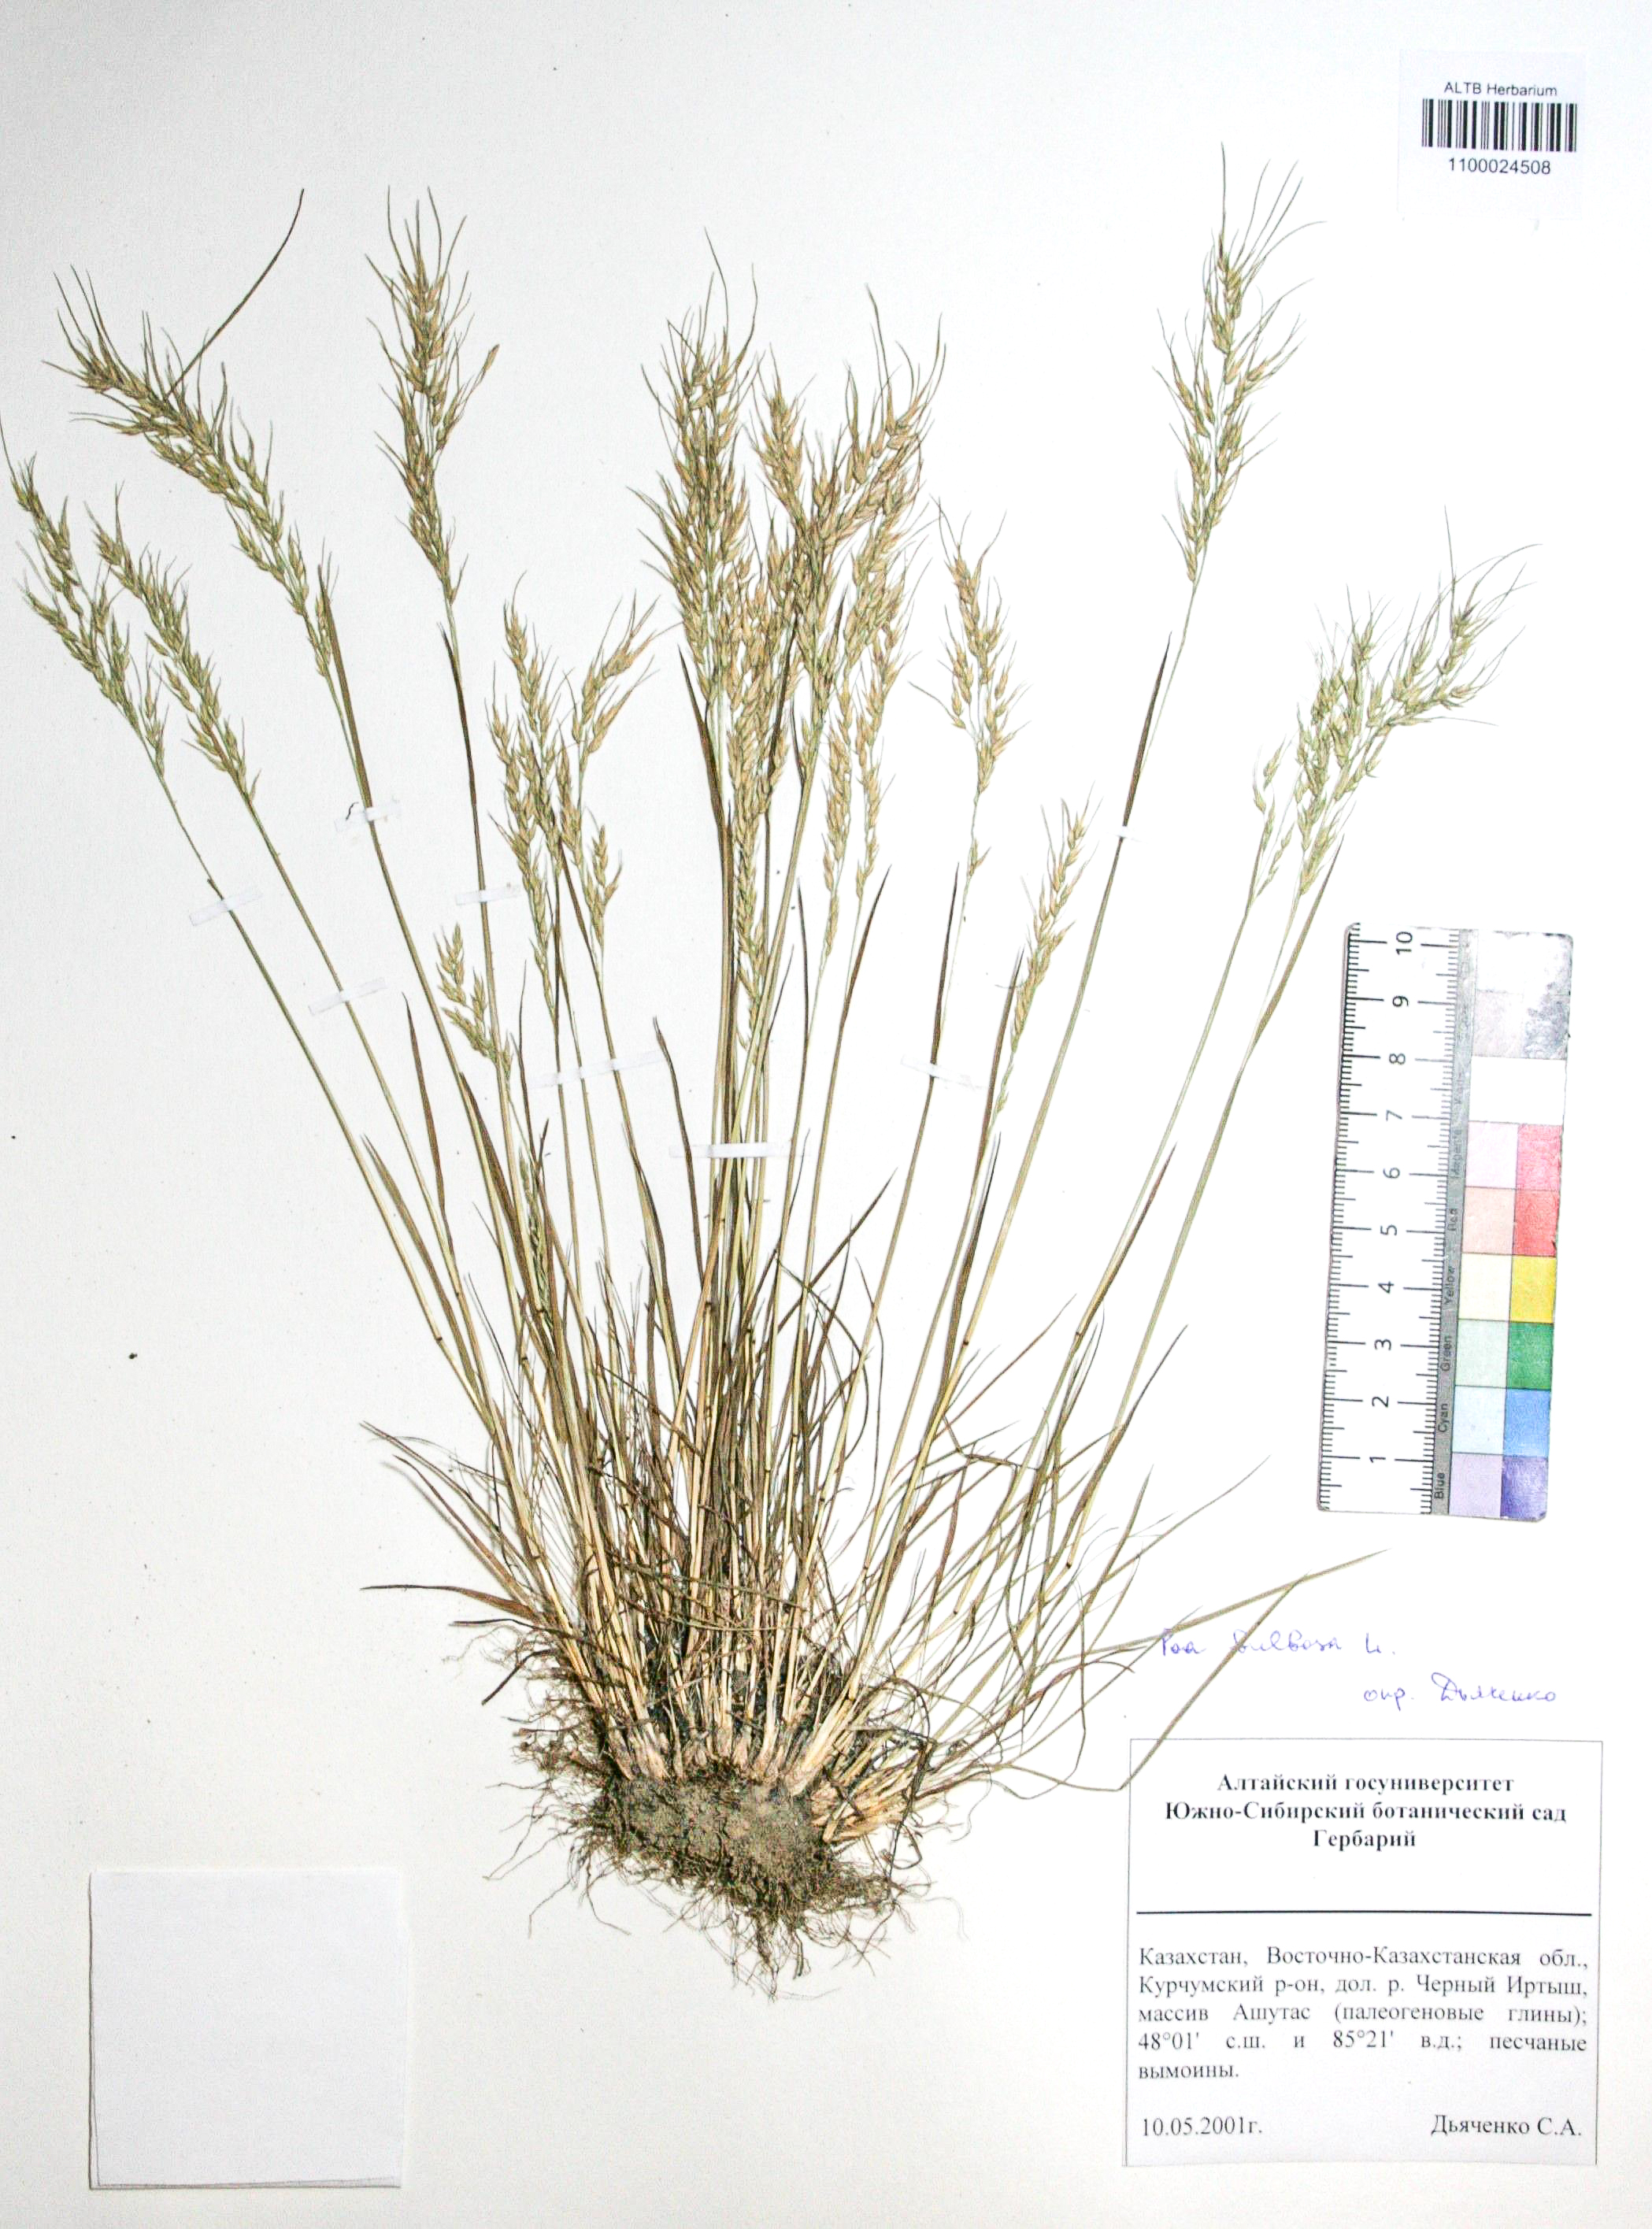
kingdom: Plantae
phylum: Tracheophyta
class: Liliopsida
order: Poales
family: Poaceae
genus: Poa
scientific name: Poa bulbosa
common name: Bulbous bluegrass
